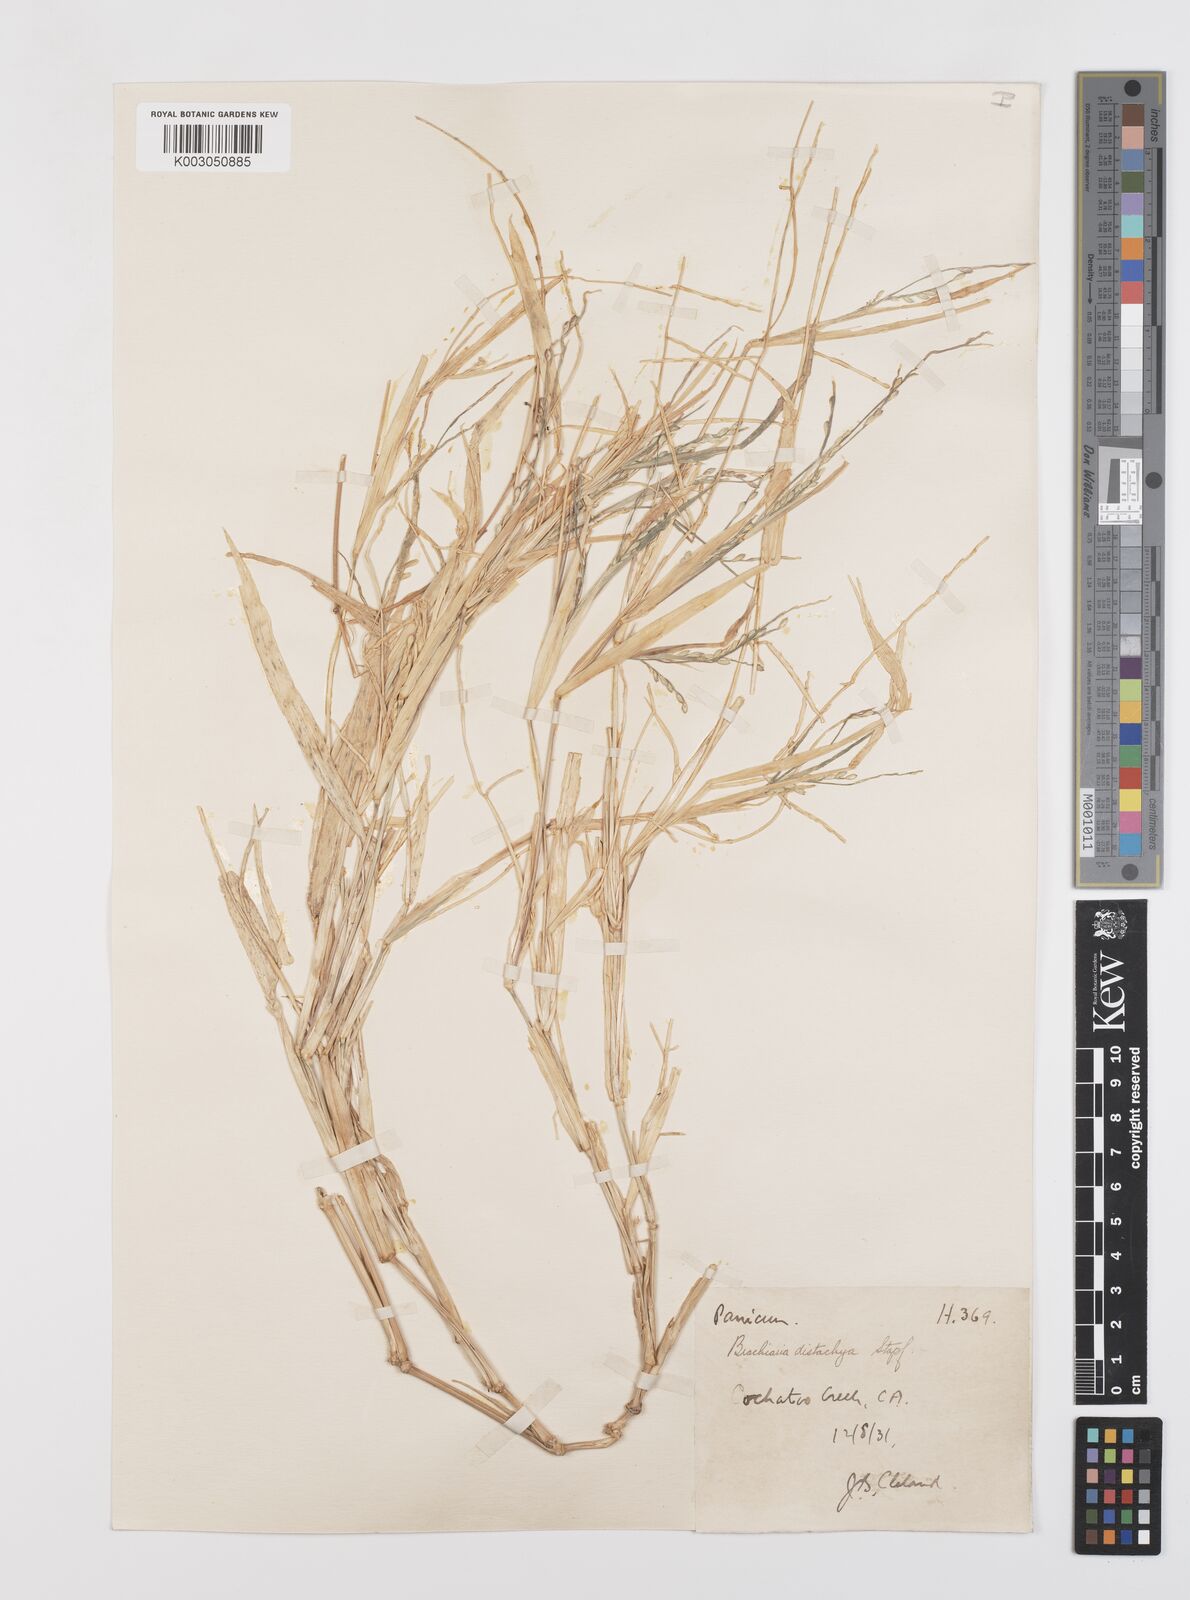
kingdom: Plantae
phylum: Tracheophyta
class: Liliopsida
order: Poales
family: Poaceae
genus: Urochloa
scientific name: Urochloa subquadripara
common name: Armgrass millet
